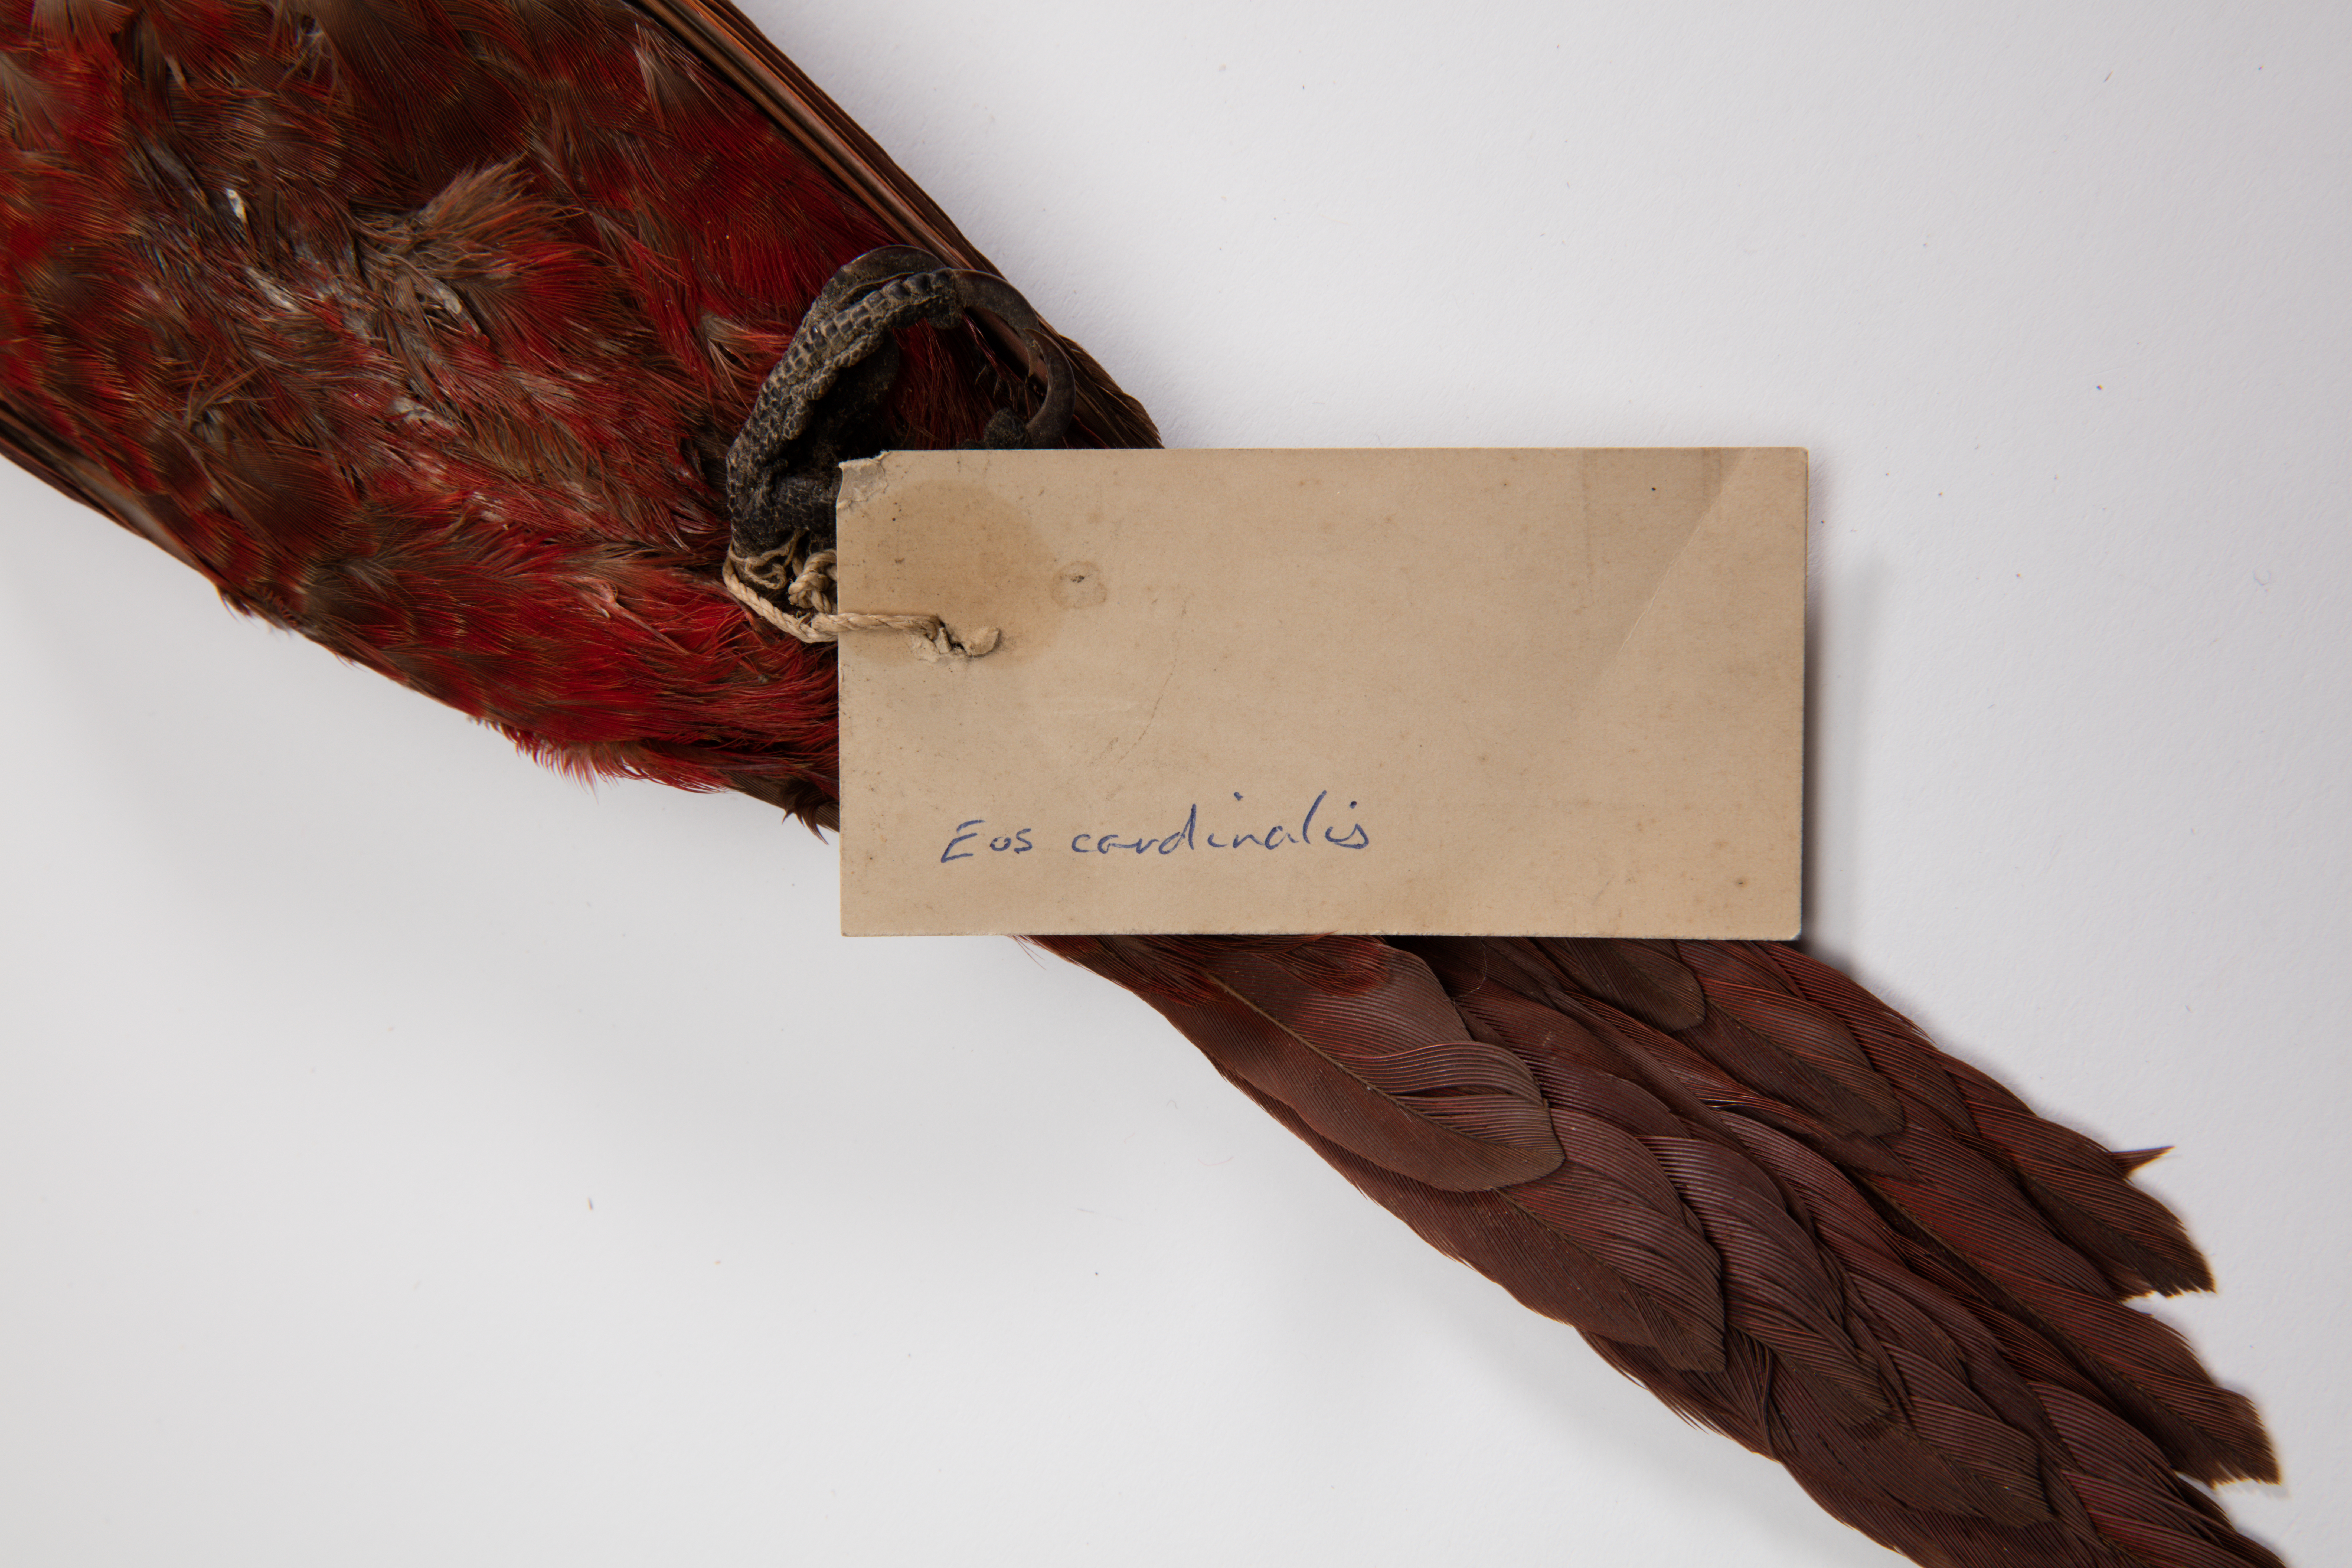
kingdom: Animalia
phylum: Chordata
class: Aves
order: Psittaciformes
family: Psittacidae
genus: Chalcopsitta
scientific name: Chalcopsitta cardinalis
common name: Cardinal lory
